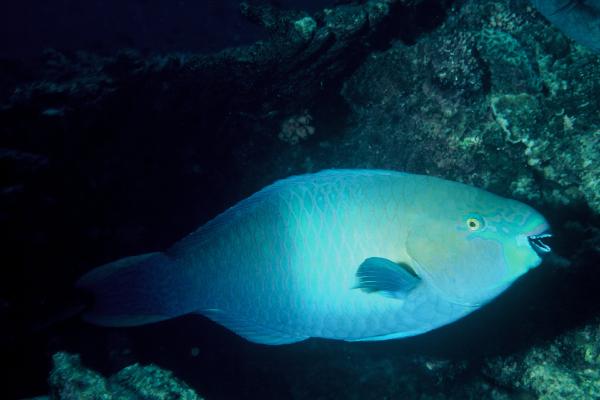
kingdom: Animalia
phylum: Chordata
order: Perciformes
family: Scaridae
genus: Scarus
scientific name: Scarus ferrugineus
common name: Rusty parrotfish
